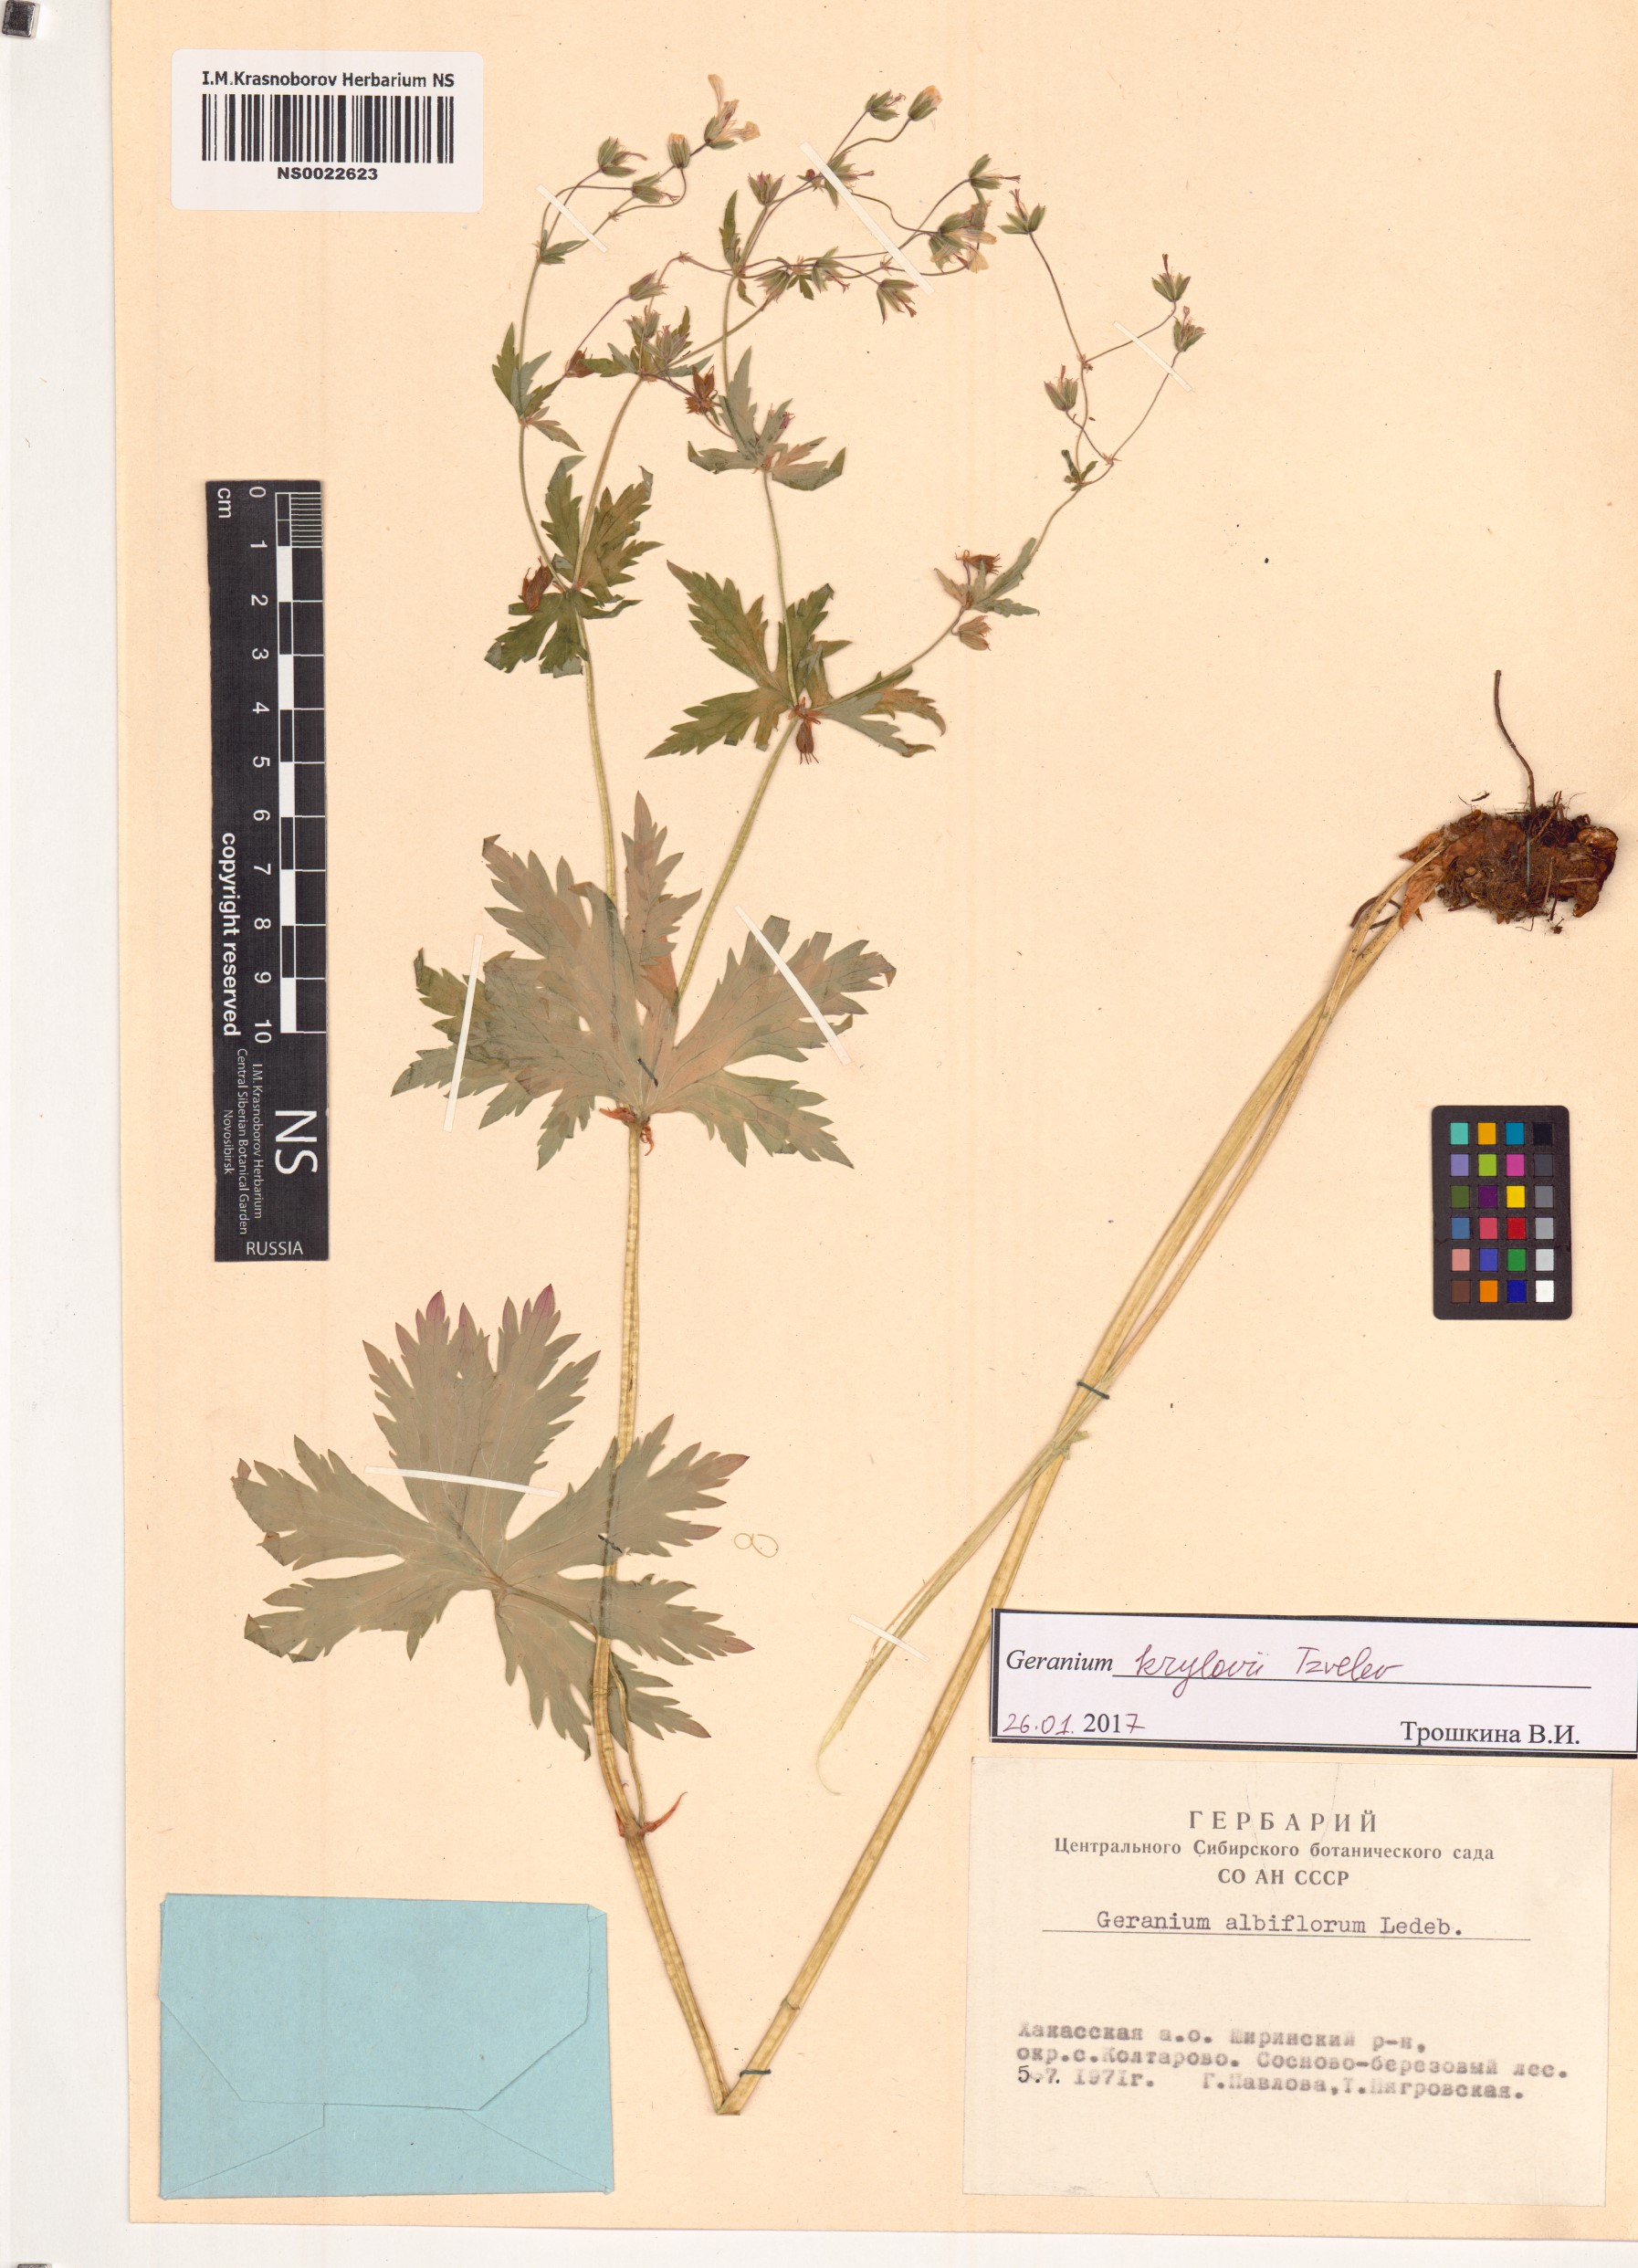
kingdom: Plantae
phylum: Tracheophyta
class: Magnoliopsida
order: Geraniales
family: Geraniaceae
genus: Geranium
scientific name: Geranium sylvaticum
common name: Wood crane's-bill
